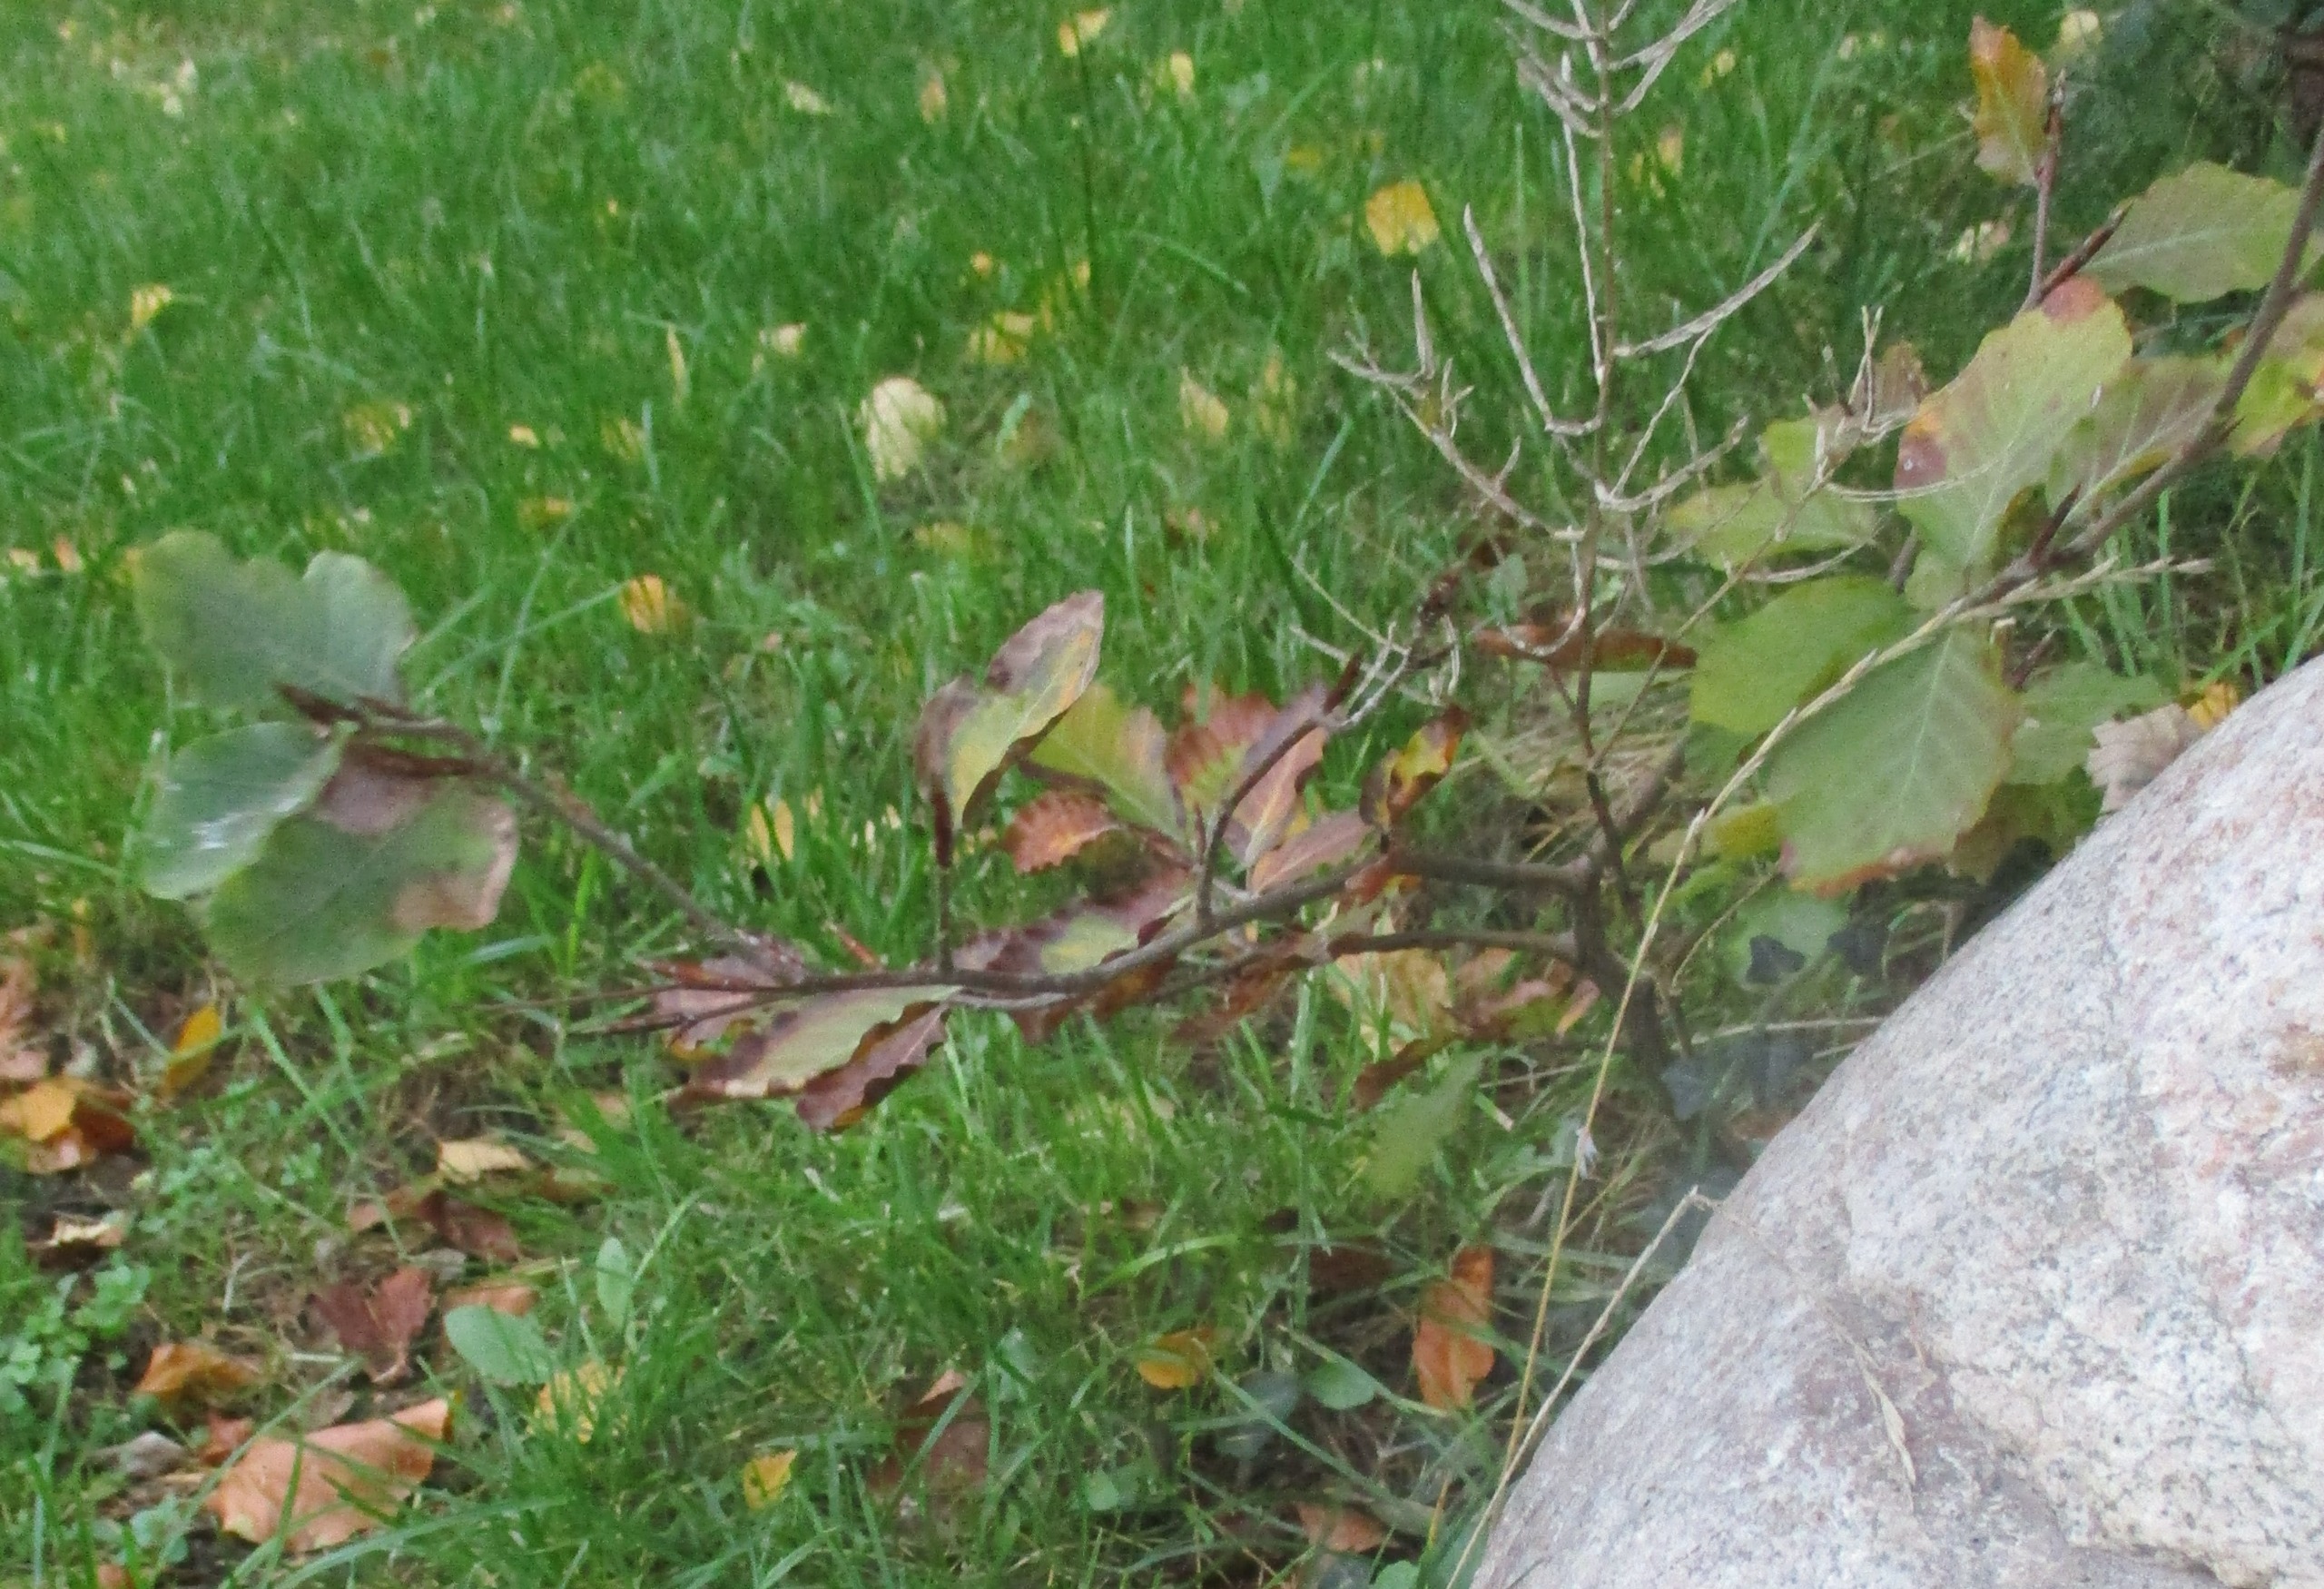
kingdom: Plantae
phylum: Tracheophyta
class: Magnoliopsida
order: Fagales
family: Fagaceae
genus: Fagus
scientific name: Fagus sylvatica
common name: Bøg
